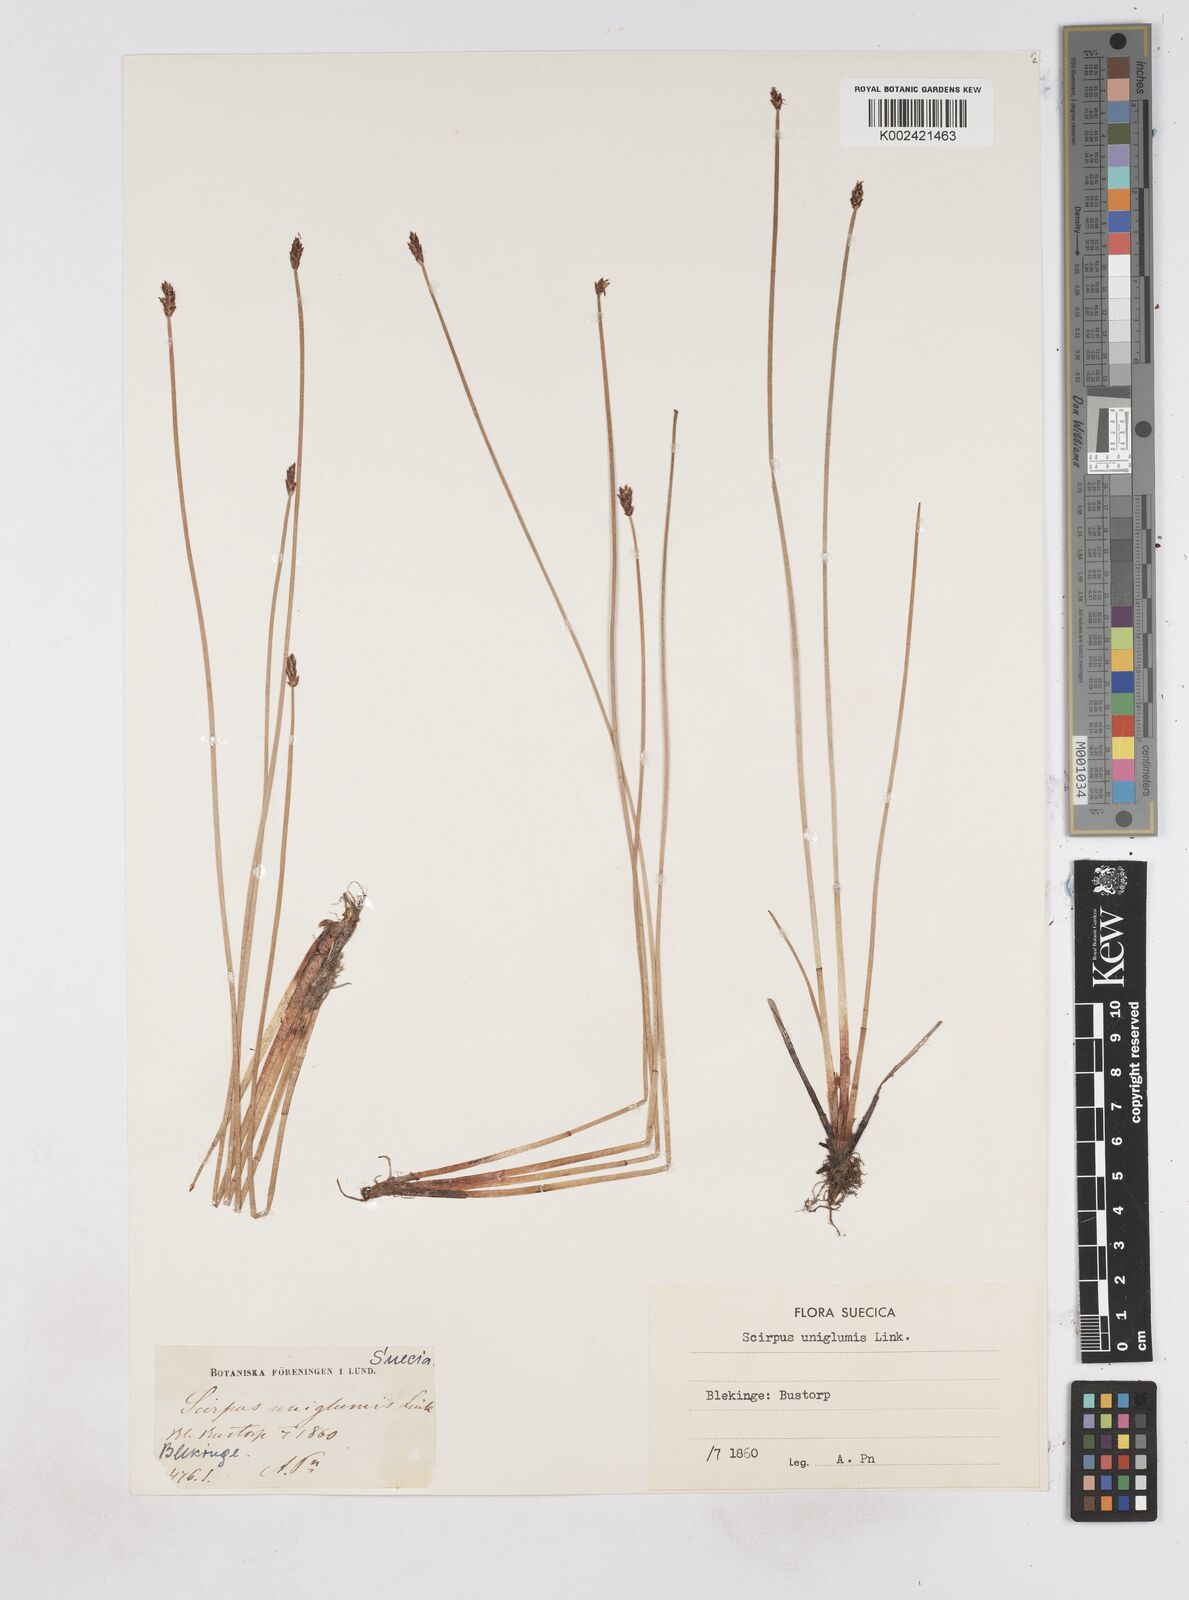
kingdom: Plantae
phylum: Tracheophyta
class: Liliopsida
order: Poales
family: Cyperaceae
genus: Eleocharis
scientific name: Eleocharis uniglumis
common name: Slender spike-rush
